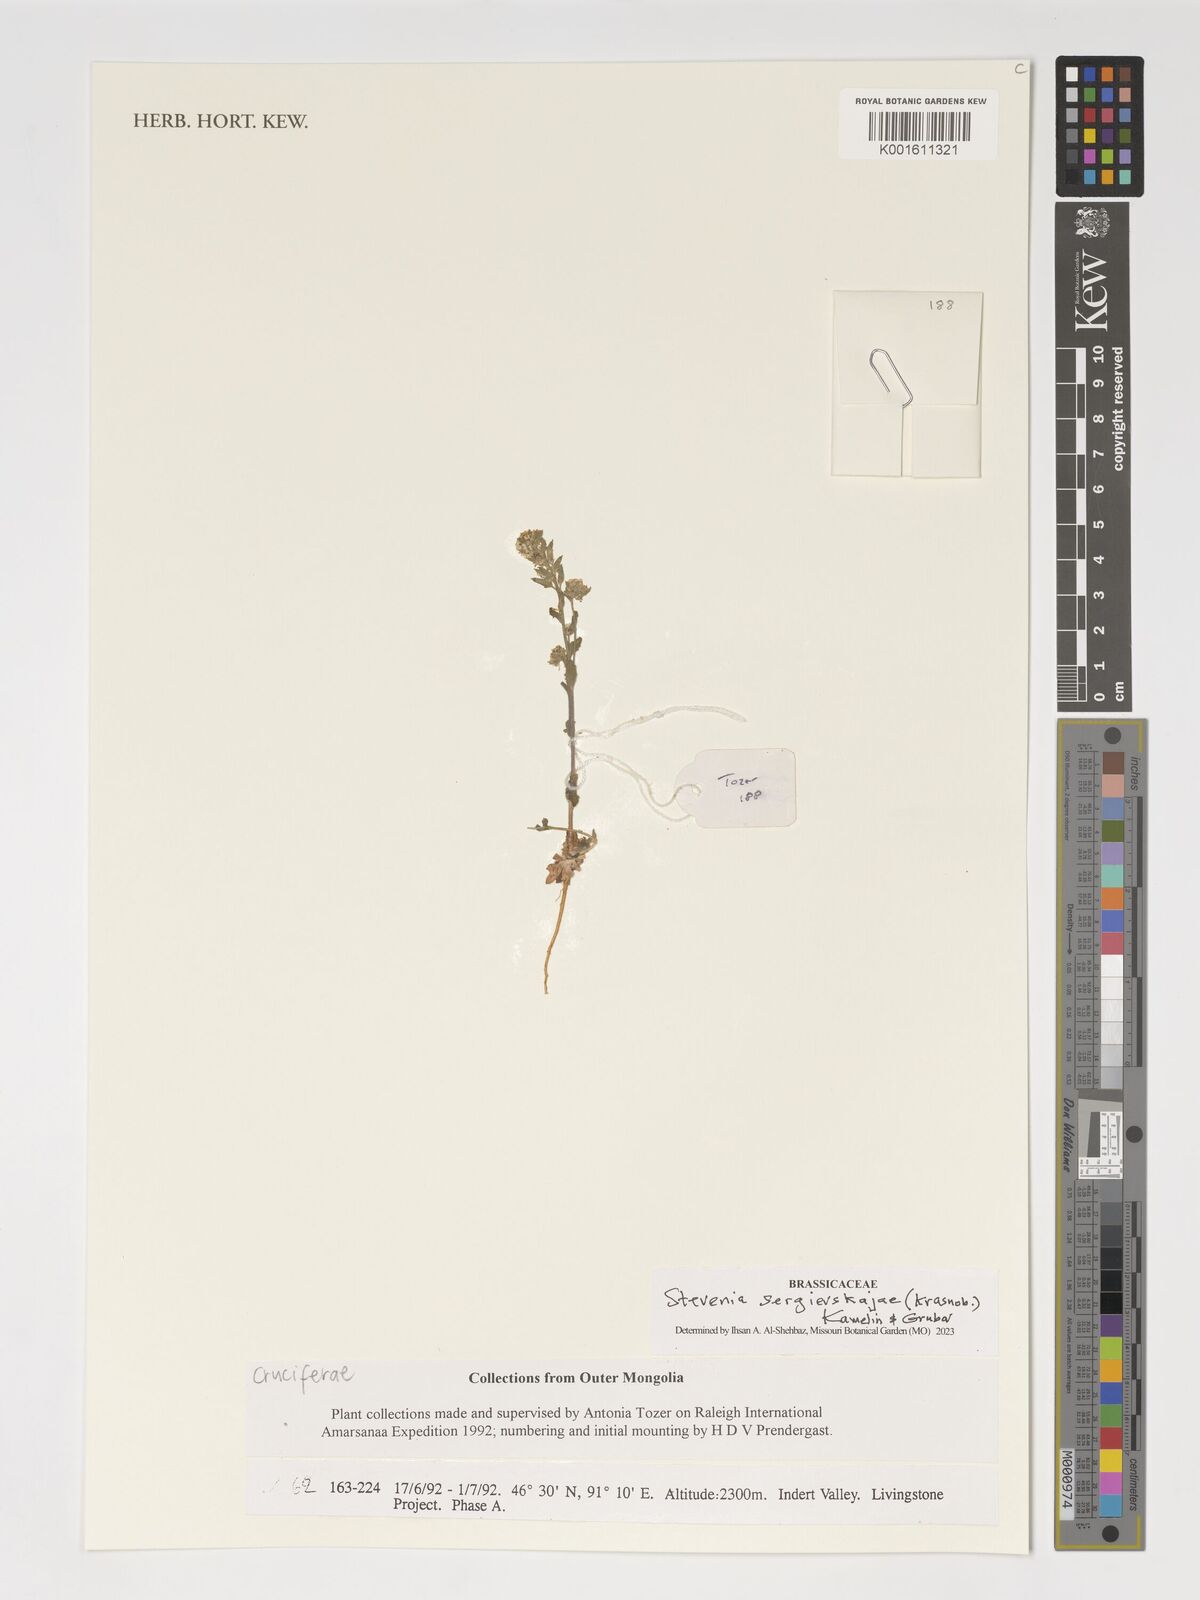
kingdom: Plantae
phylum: Tracheophyta
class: Magnoliopsida
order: Brassicales
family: Brassicaceae
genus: Stevenia
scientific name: Stevenia sergievskajae
